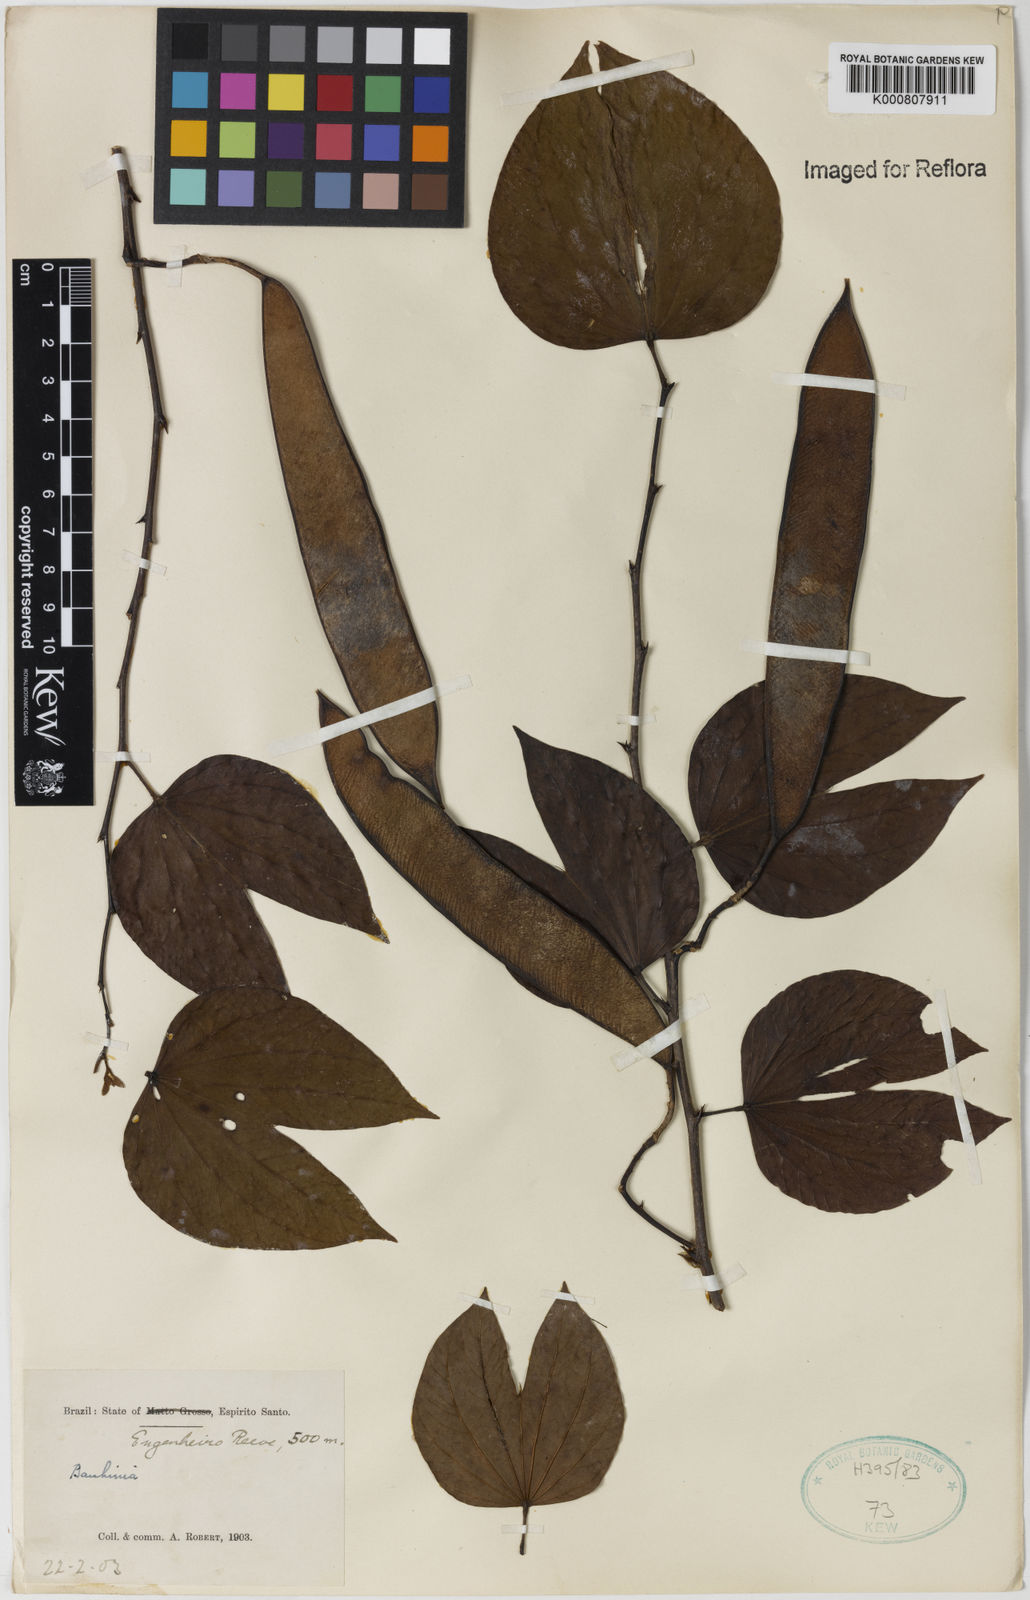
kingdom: Plantae
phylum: Tracheophyta
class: Magnoliopsida
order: Fabales
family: Fabaceae
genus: Bauhinia
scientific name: Bauhinia
